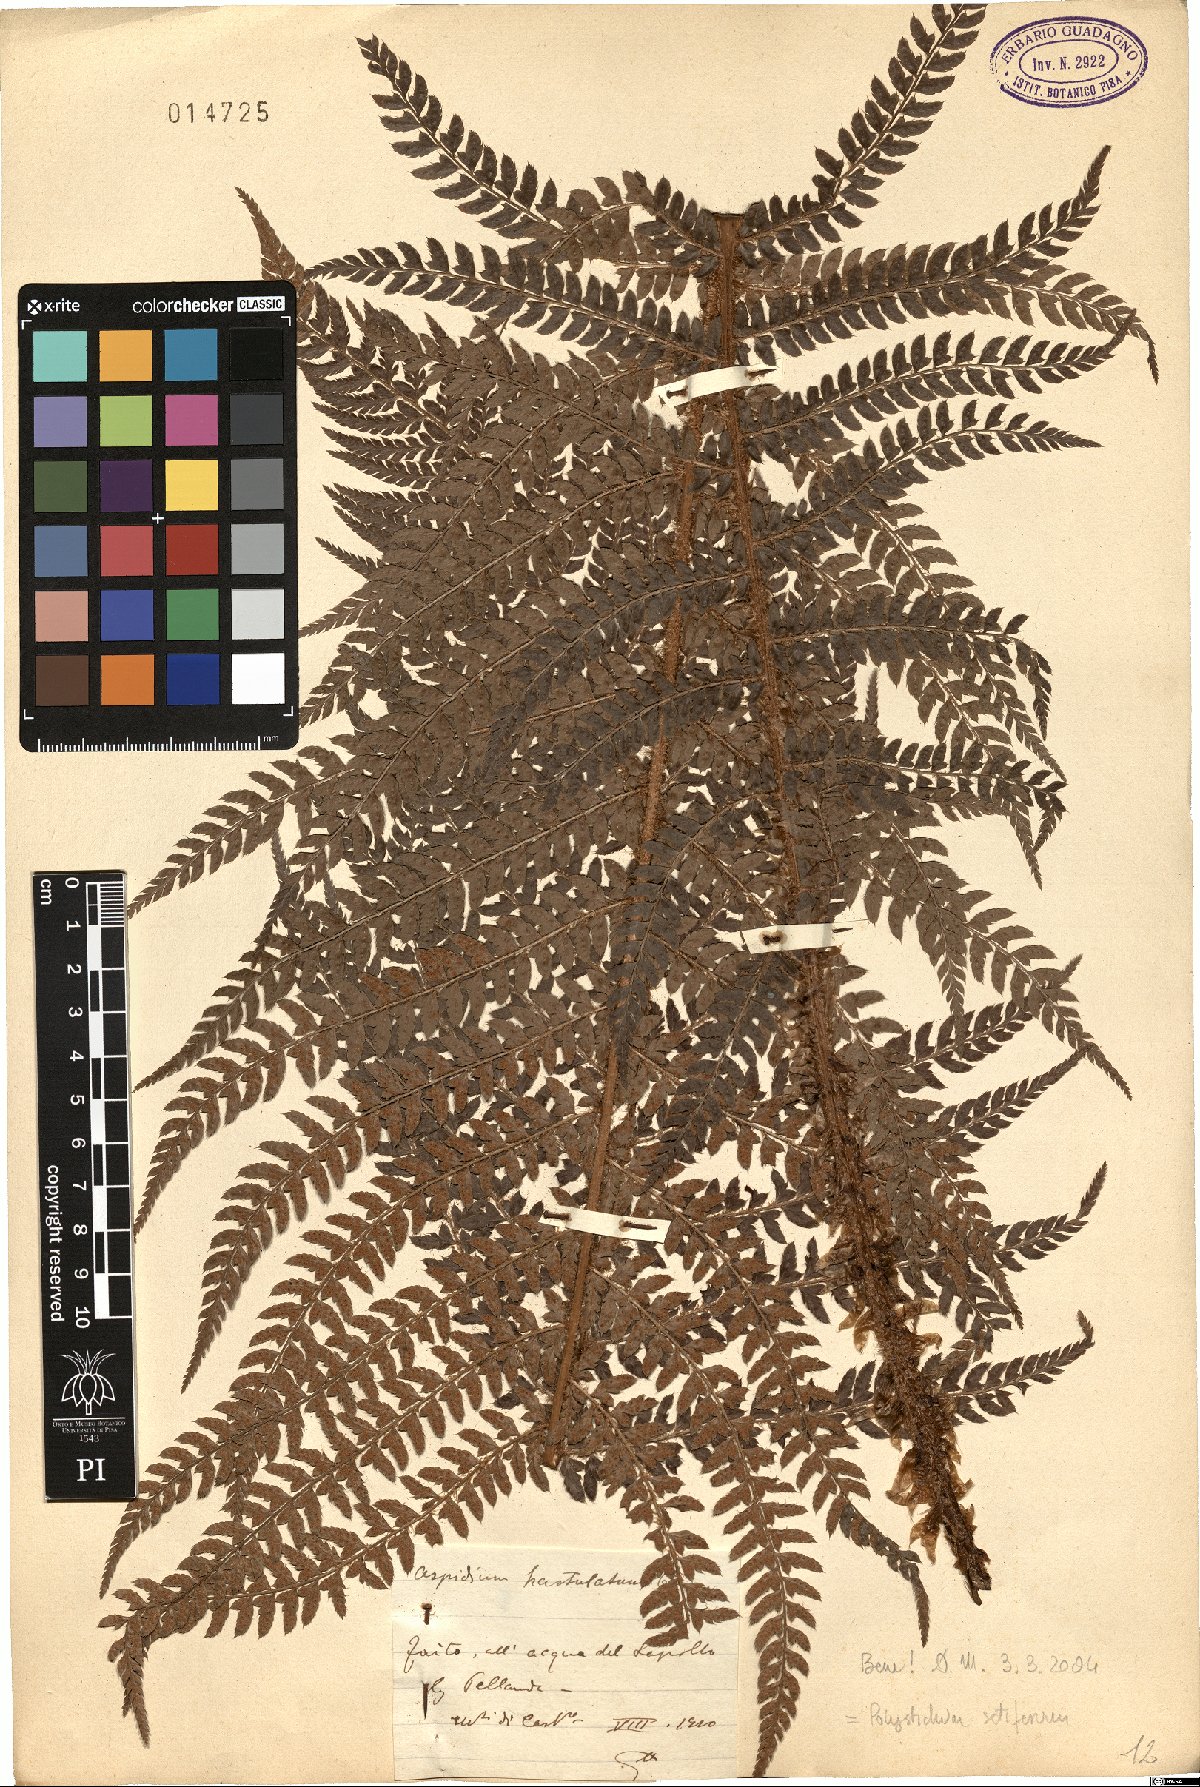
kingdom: Plantae
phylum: Tracheophyta
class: Polypodiopsida
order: Polypodiales
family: Dryopteridaceae
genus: Polystichum
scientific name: Polystichum setiferum
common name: Soft shield-fern
